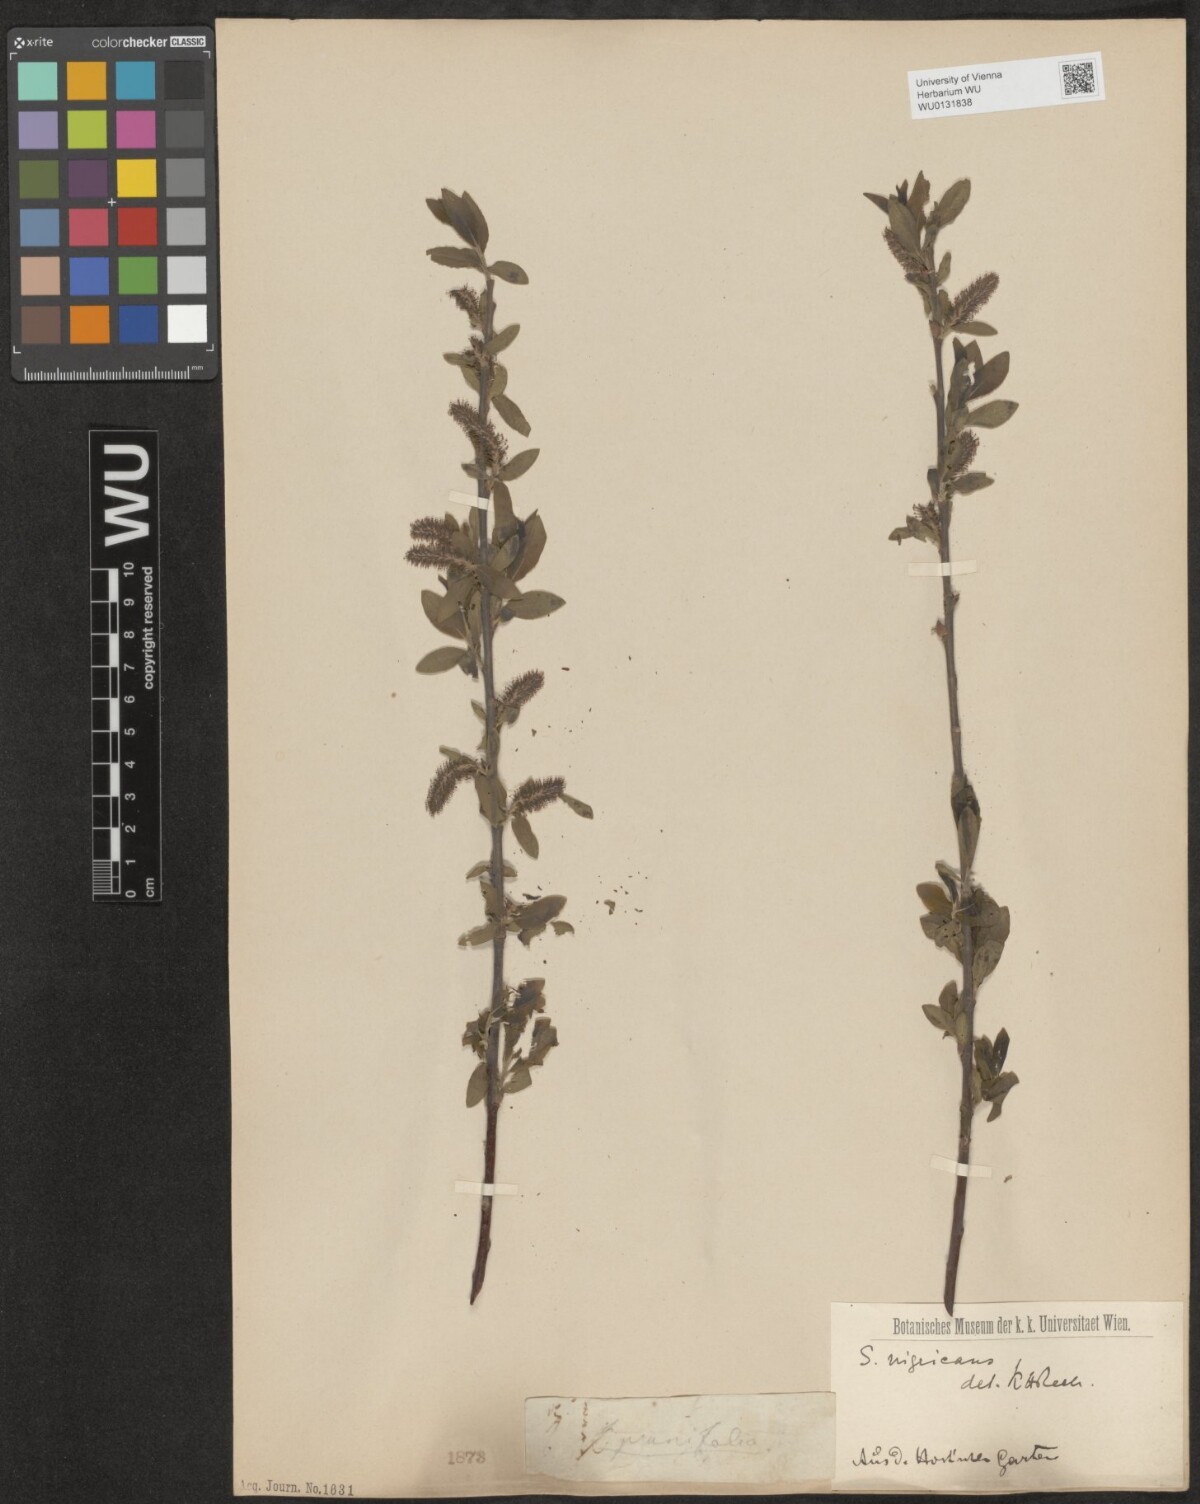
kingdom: Plantae
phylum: Tracheophyta
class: Magnoliopsida
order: Malpighiales
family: Salicaceae
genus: Salix
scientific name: Salix myrsinifolia
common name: Dark-leaved willow
